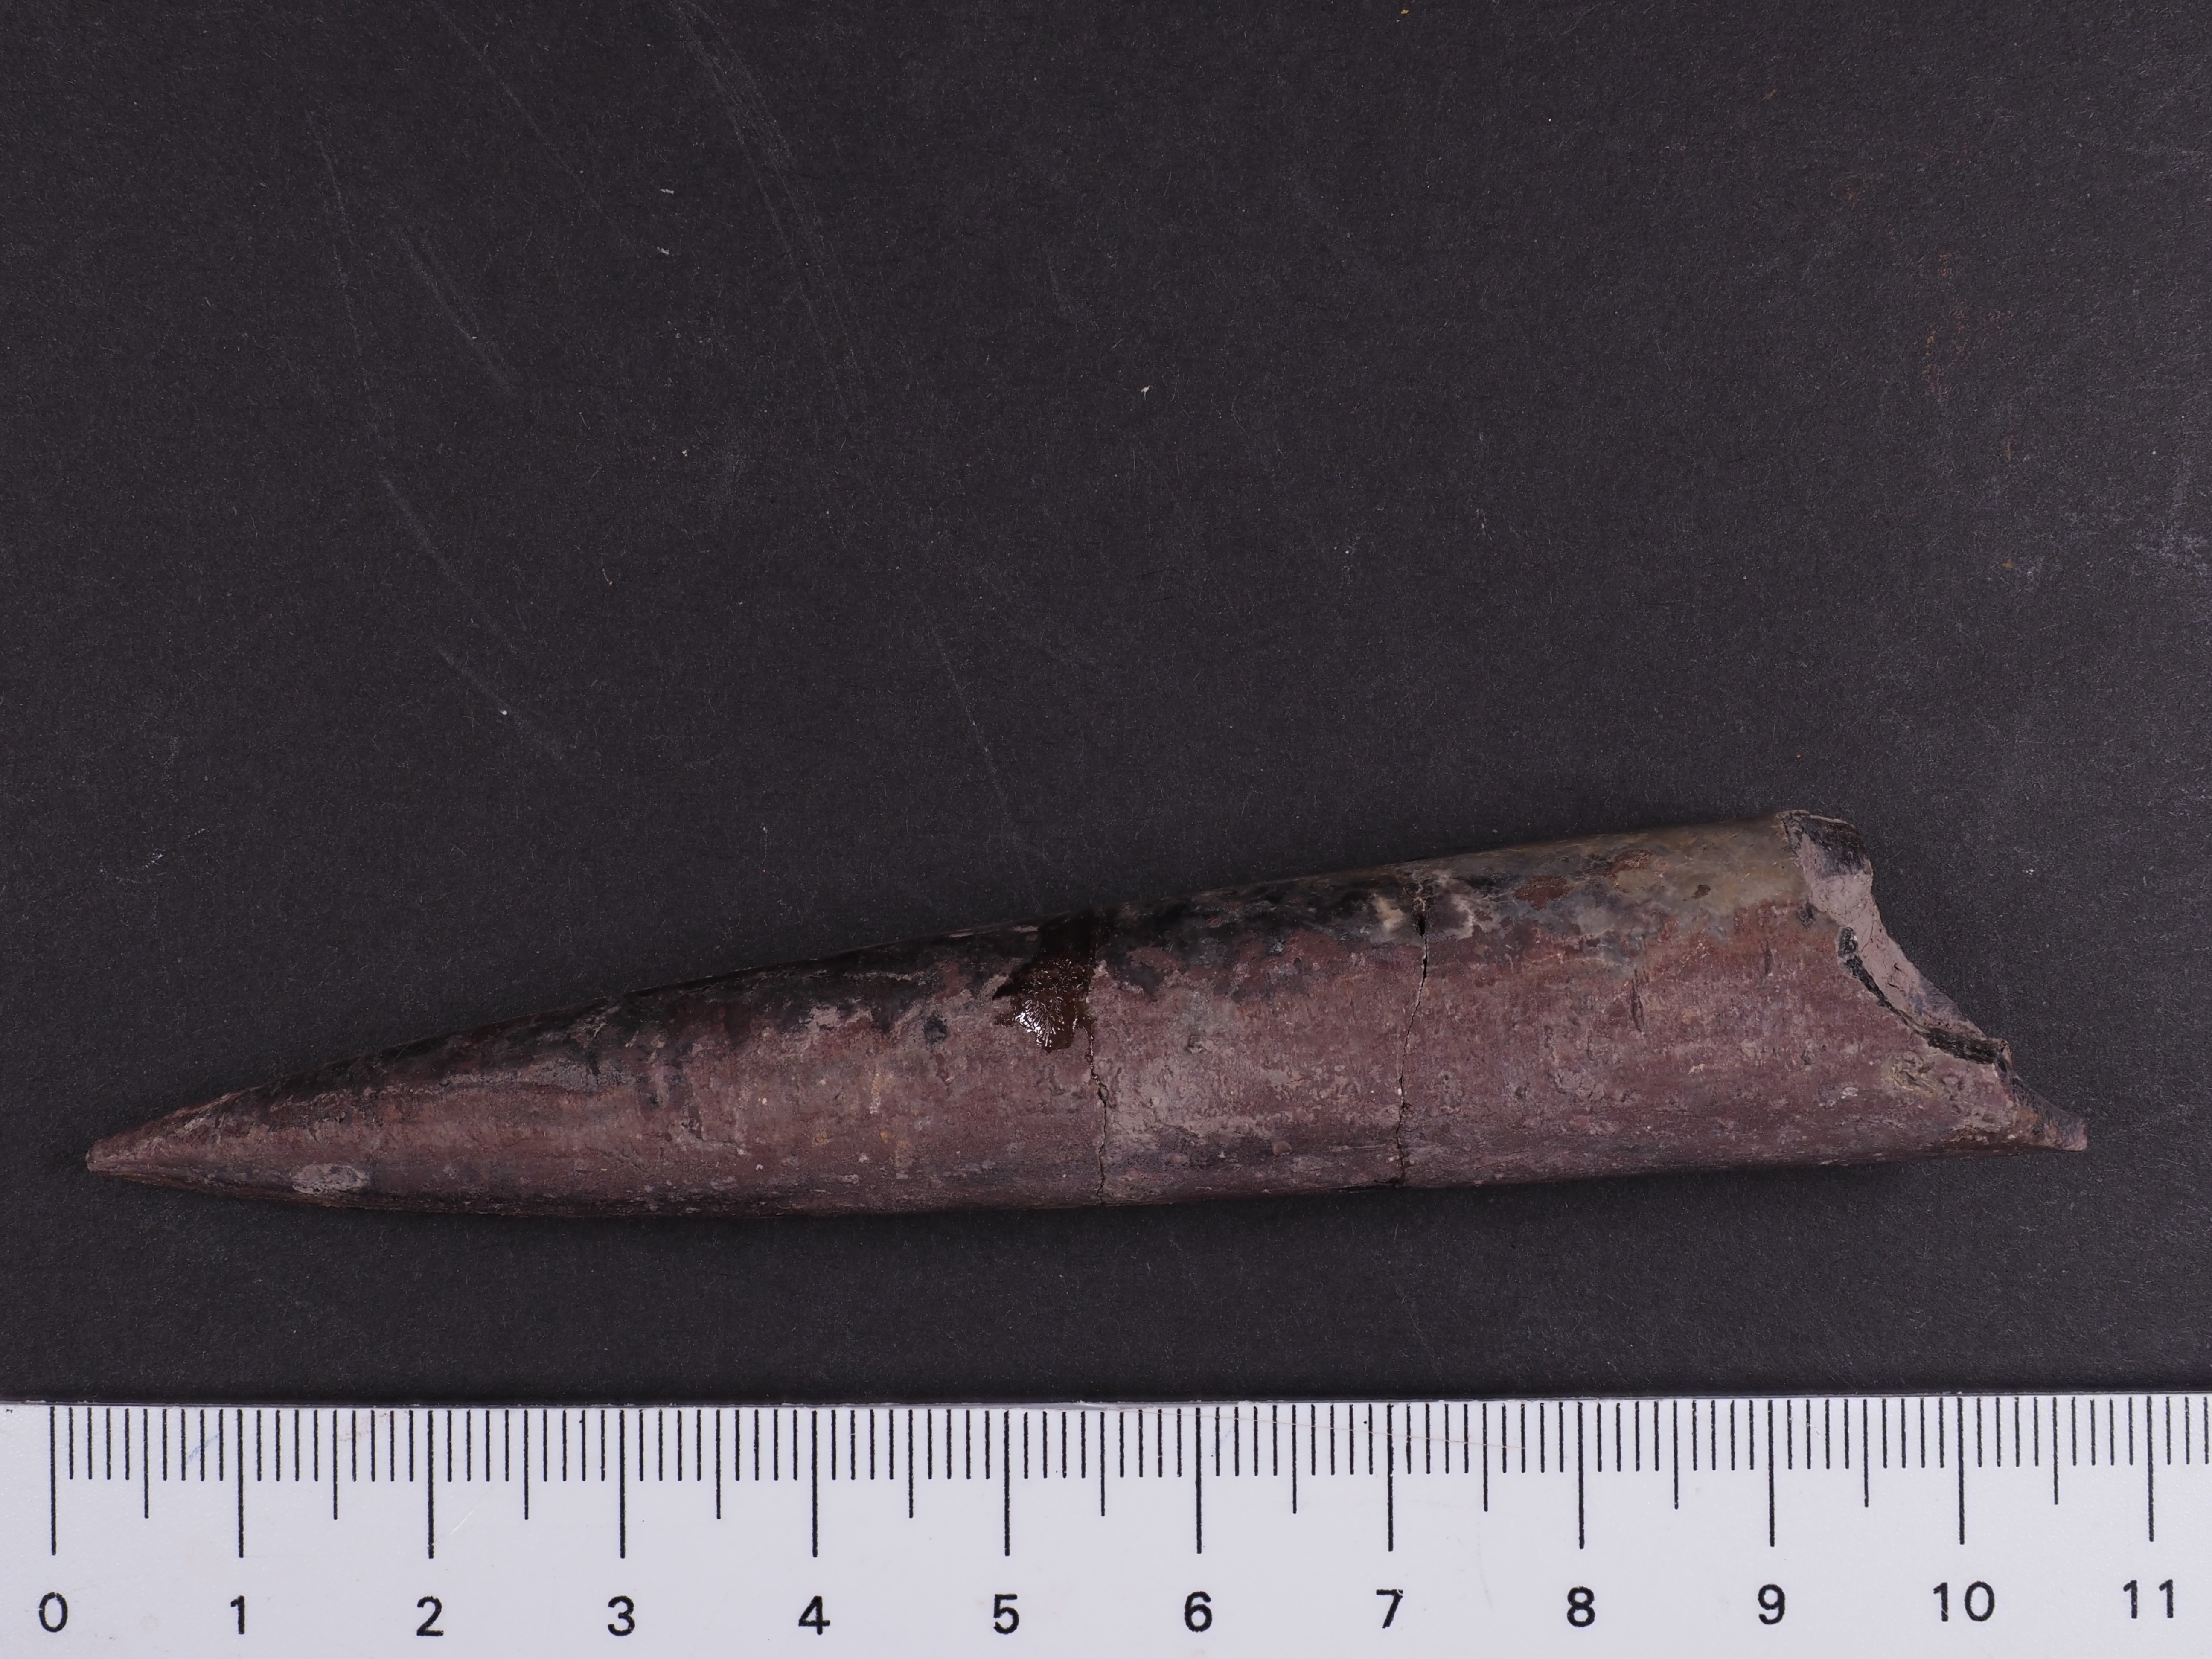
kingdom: Animalia
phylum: Mollusca
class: Cephalopoda
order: Belemnitida
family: Megateuthididae
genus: Acrocoelites
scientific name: Acrocoelites tripartitus
